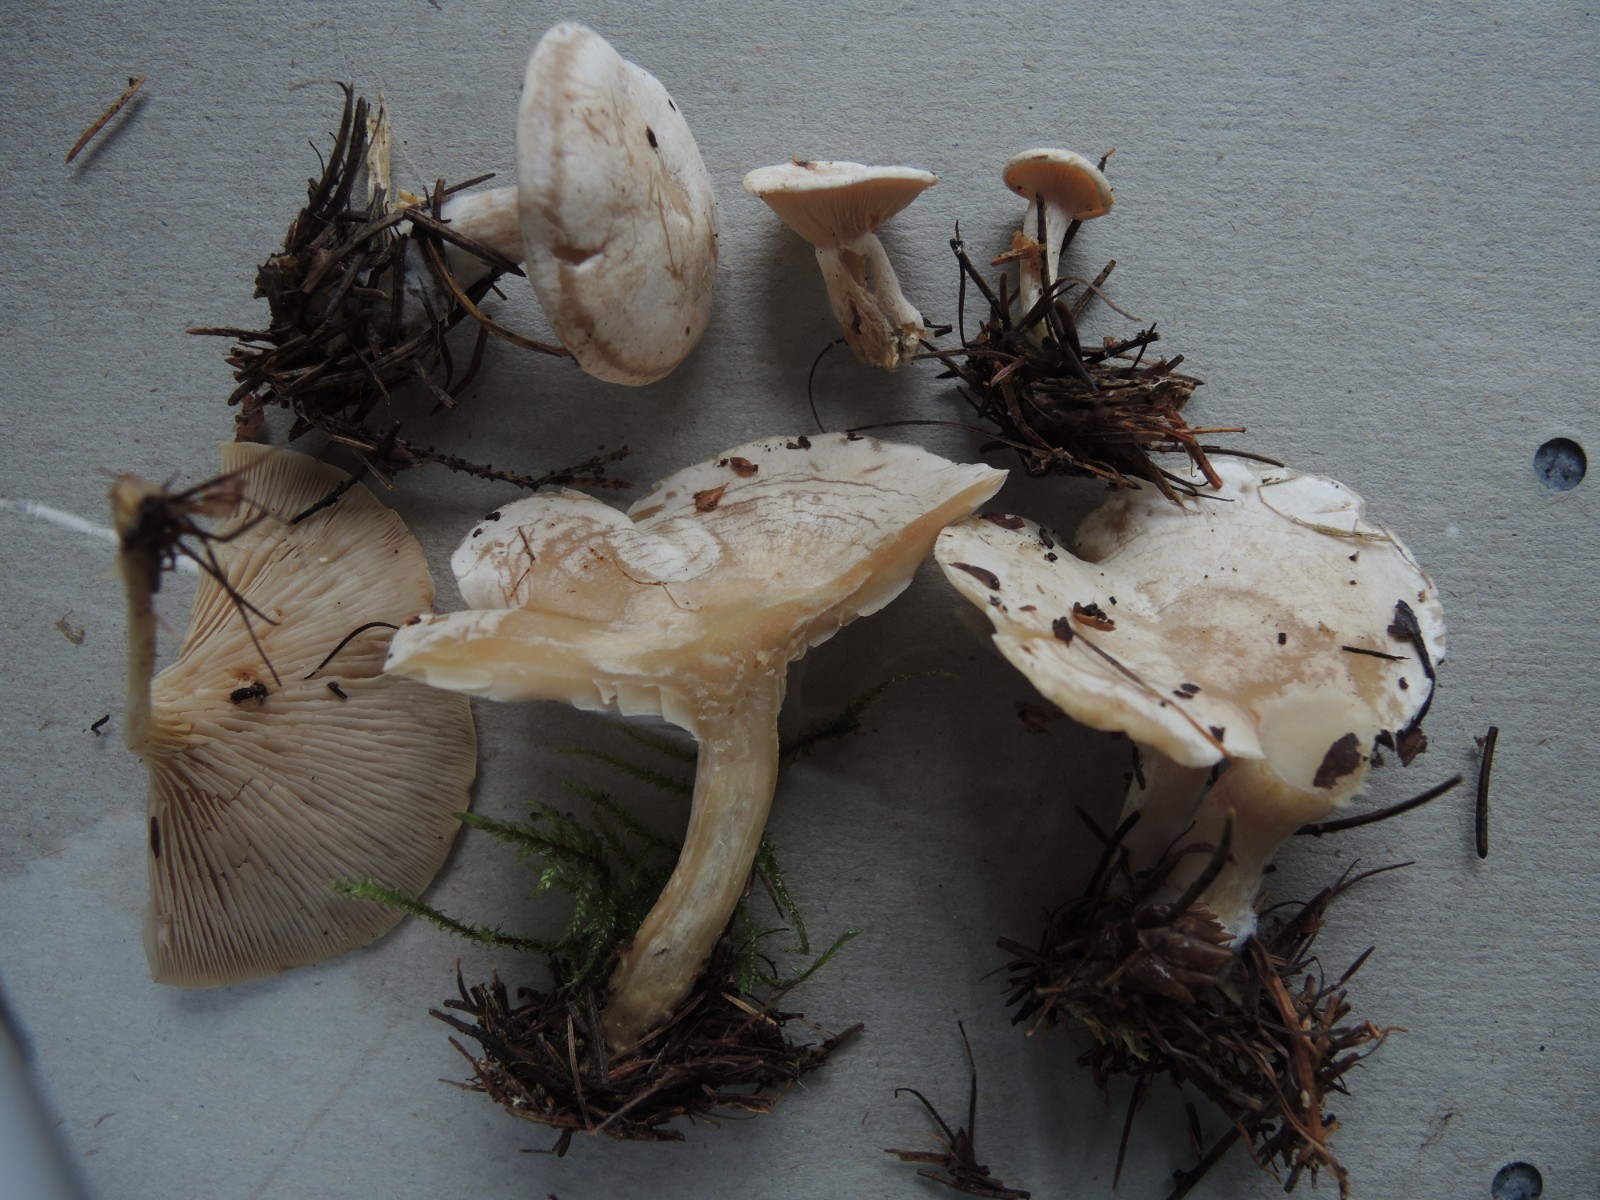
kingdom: Fungi
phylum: Basidiomycota
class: Agaricomycetes
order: Agaricales
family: Tricholomataceae
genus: Clitocybe
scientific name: Clitocybe phyllophila
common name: løv-tragthat
